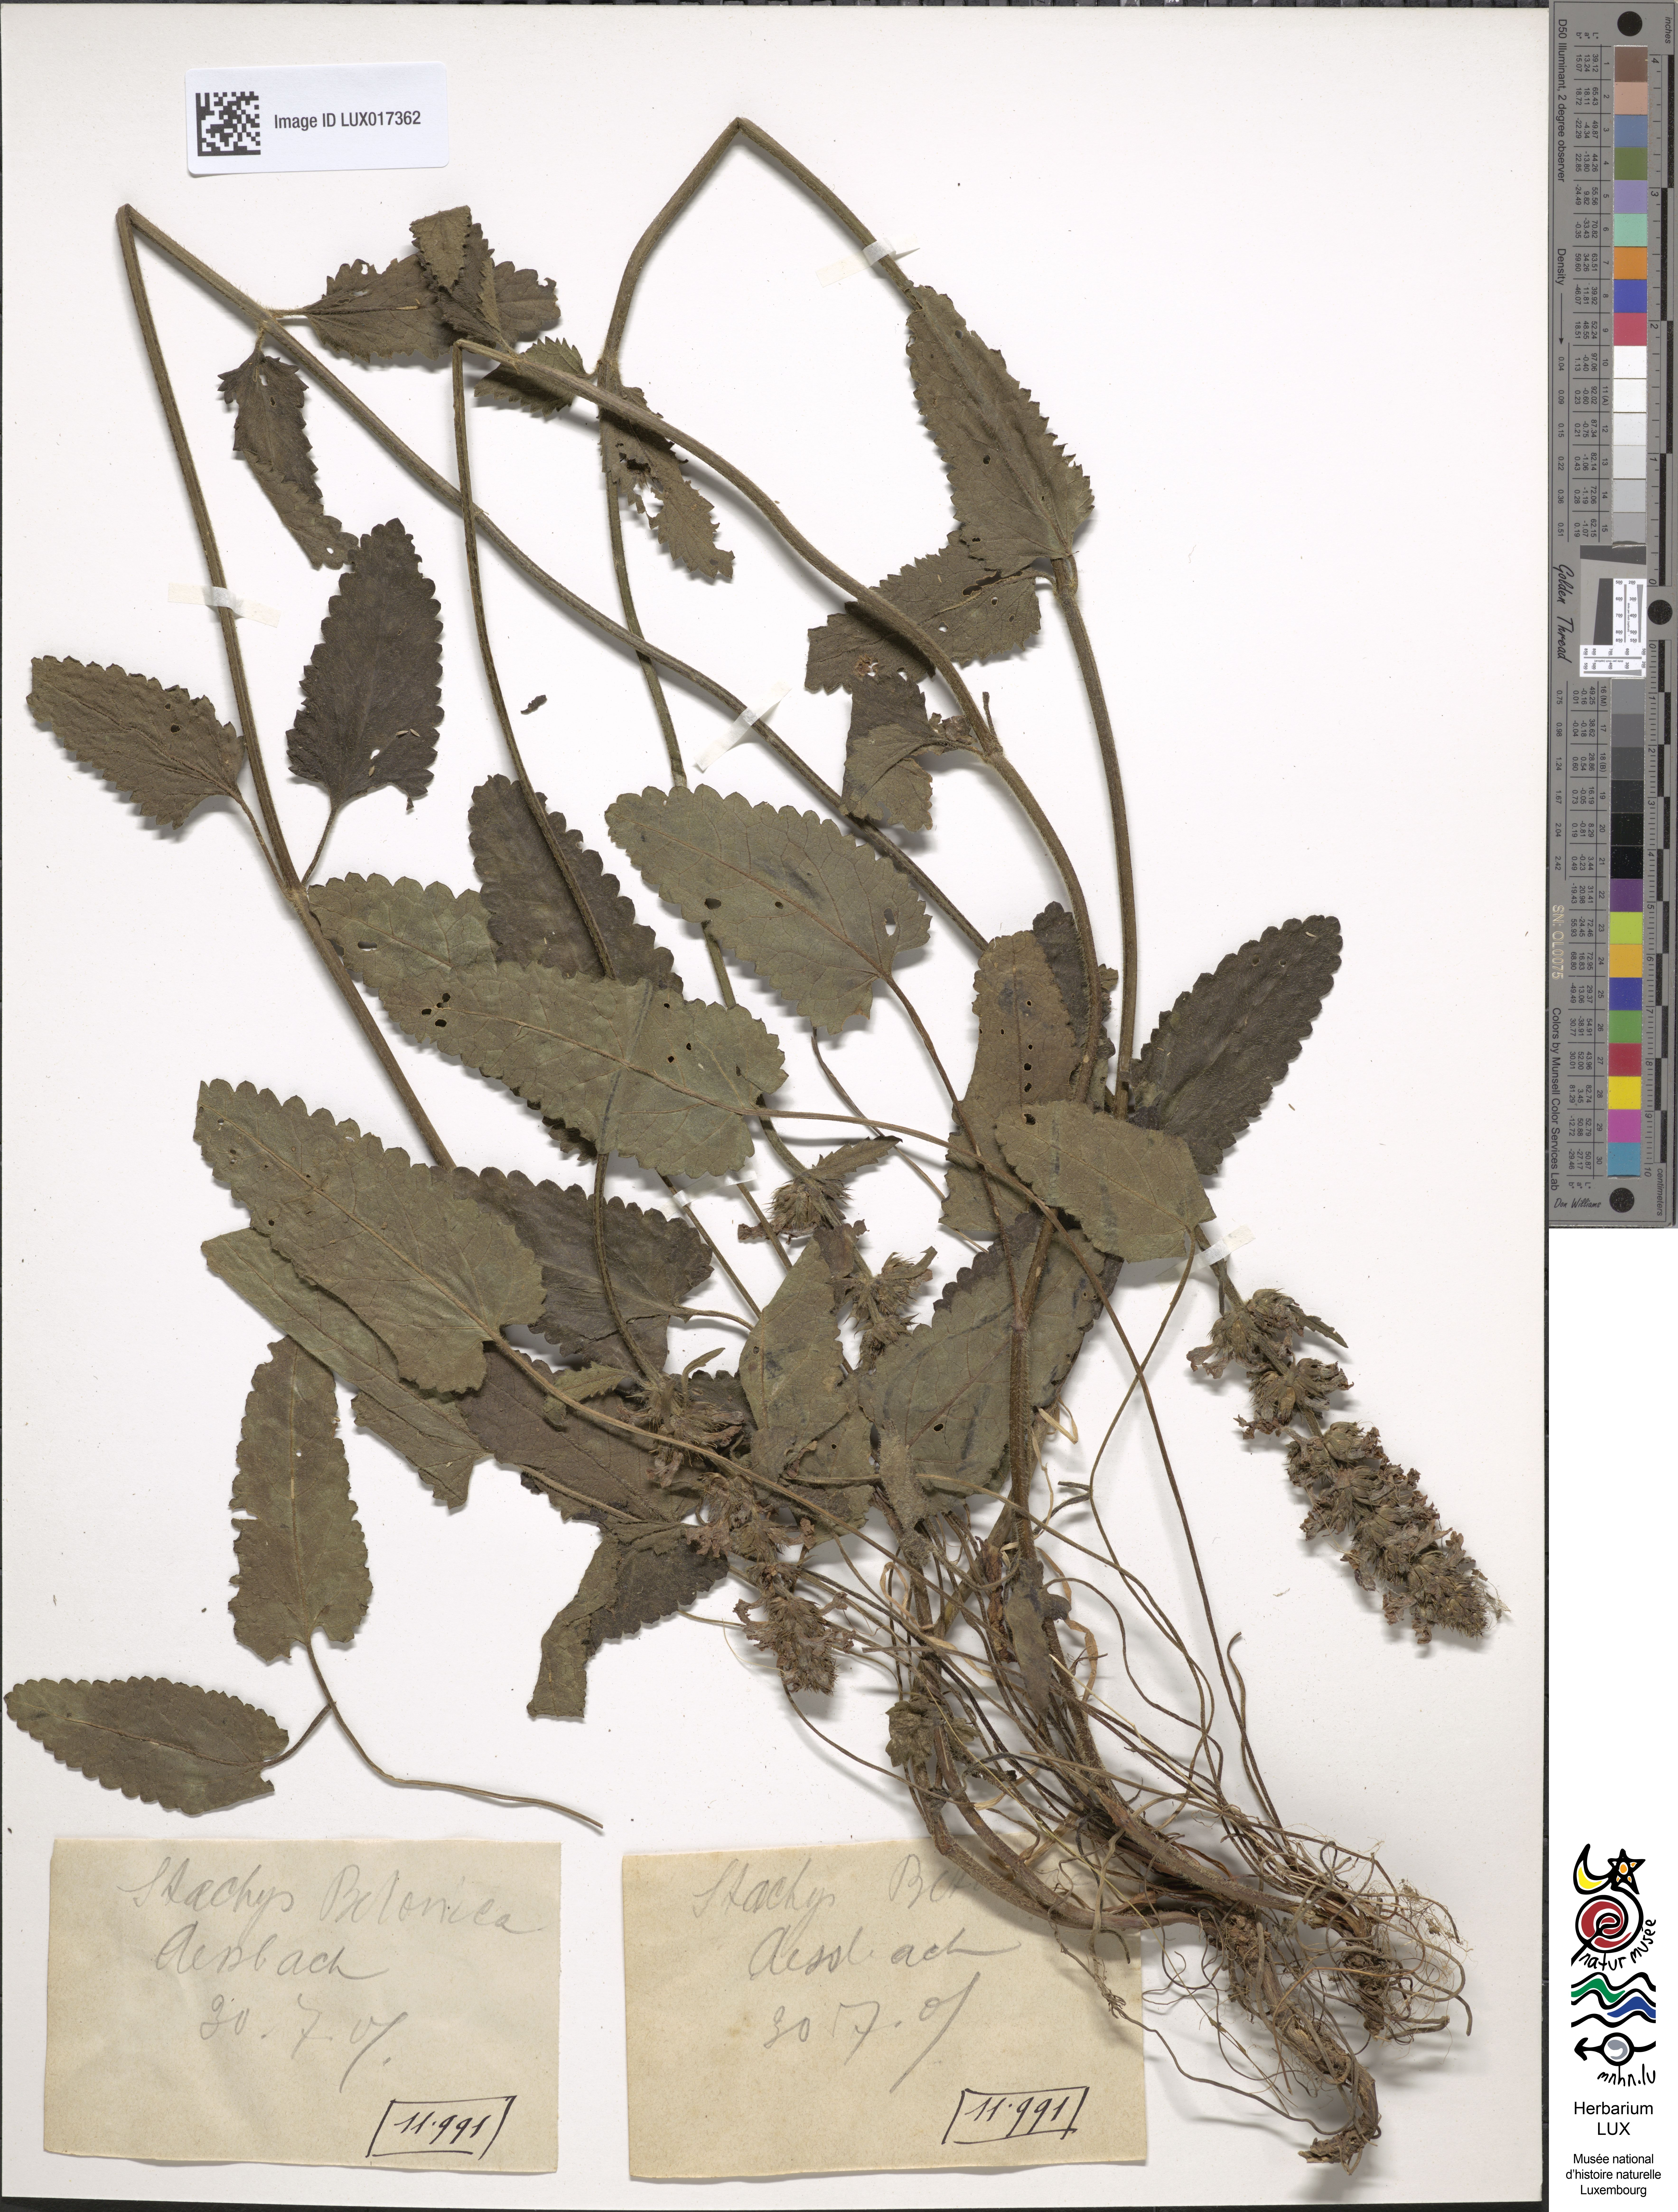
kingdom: Plantae
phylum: Tracheophyta
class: Magnoliopsida
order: Lamiales
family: Lamiaceae
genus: Betonica
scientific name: Betonica officinalis
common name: Bishop's-wort
